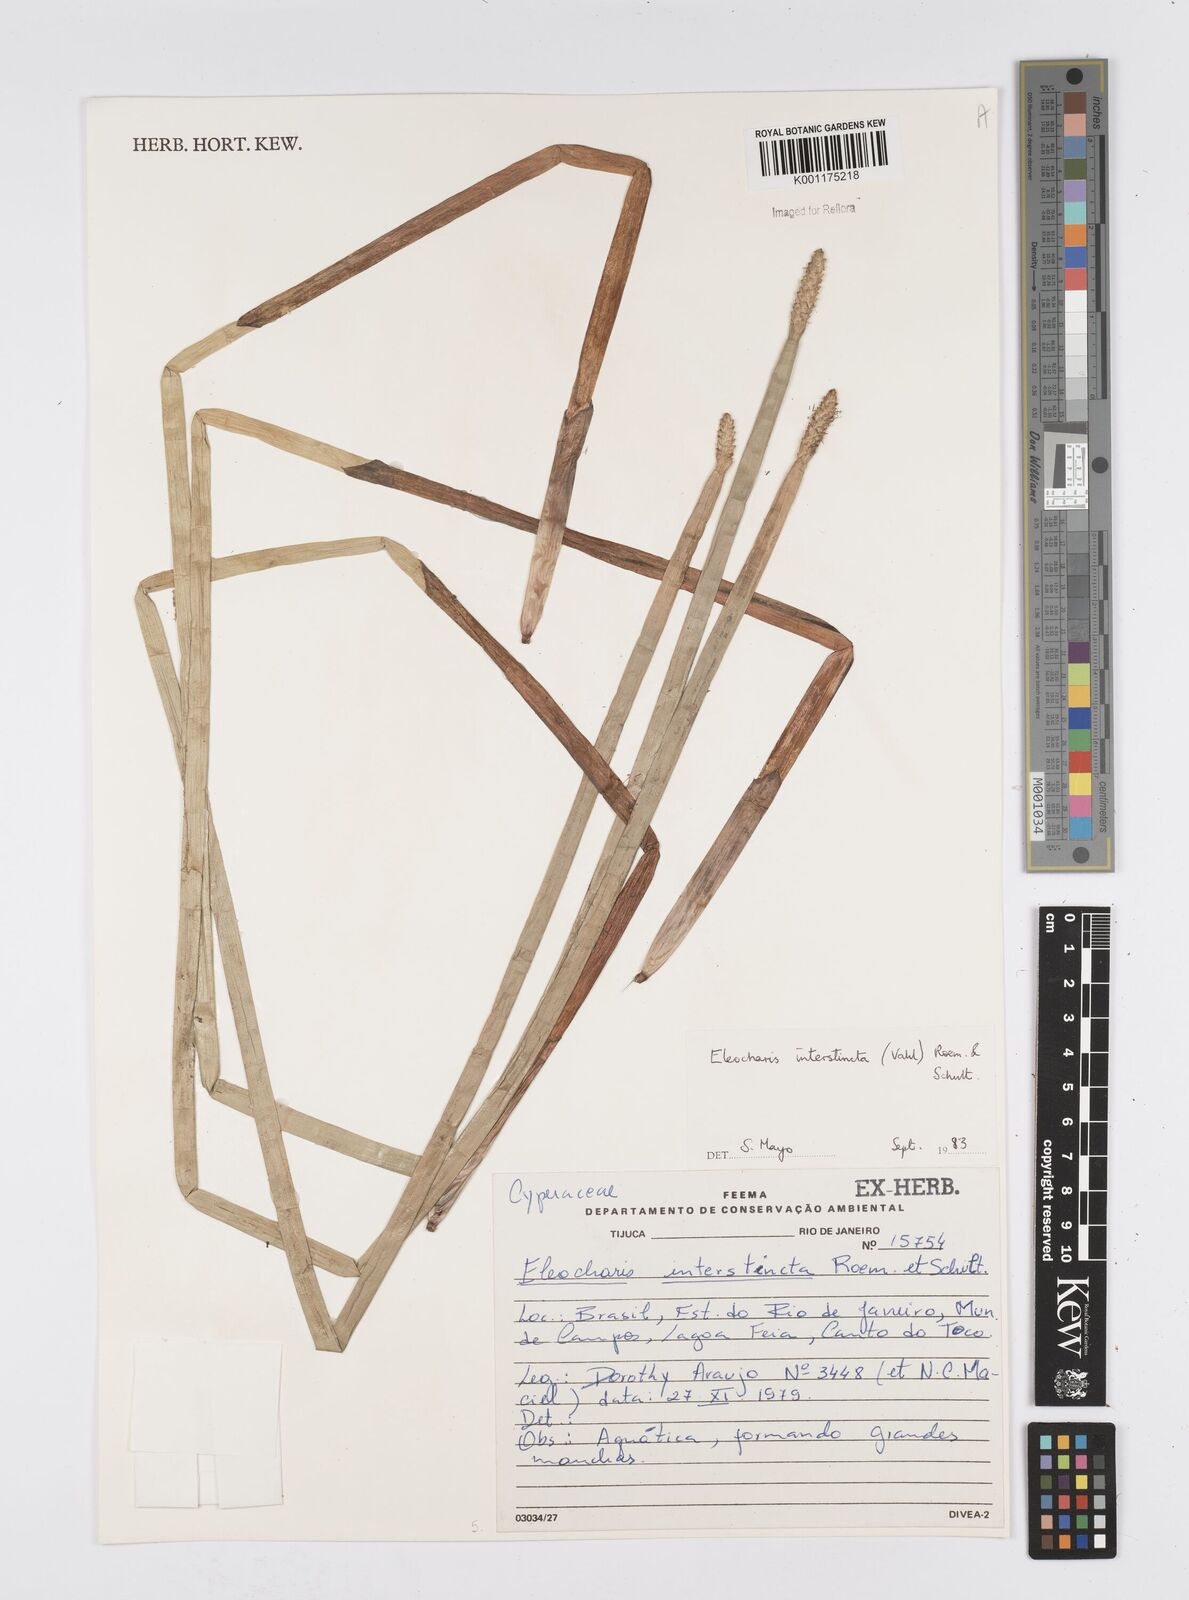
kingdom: Plantae
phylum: Tracheophyta
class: Liliopsida
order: Poales
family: Cyperaceae
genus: Eleocharis
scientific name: Eleocharis interstincta
